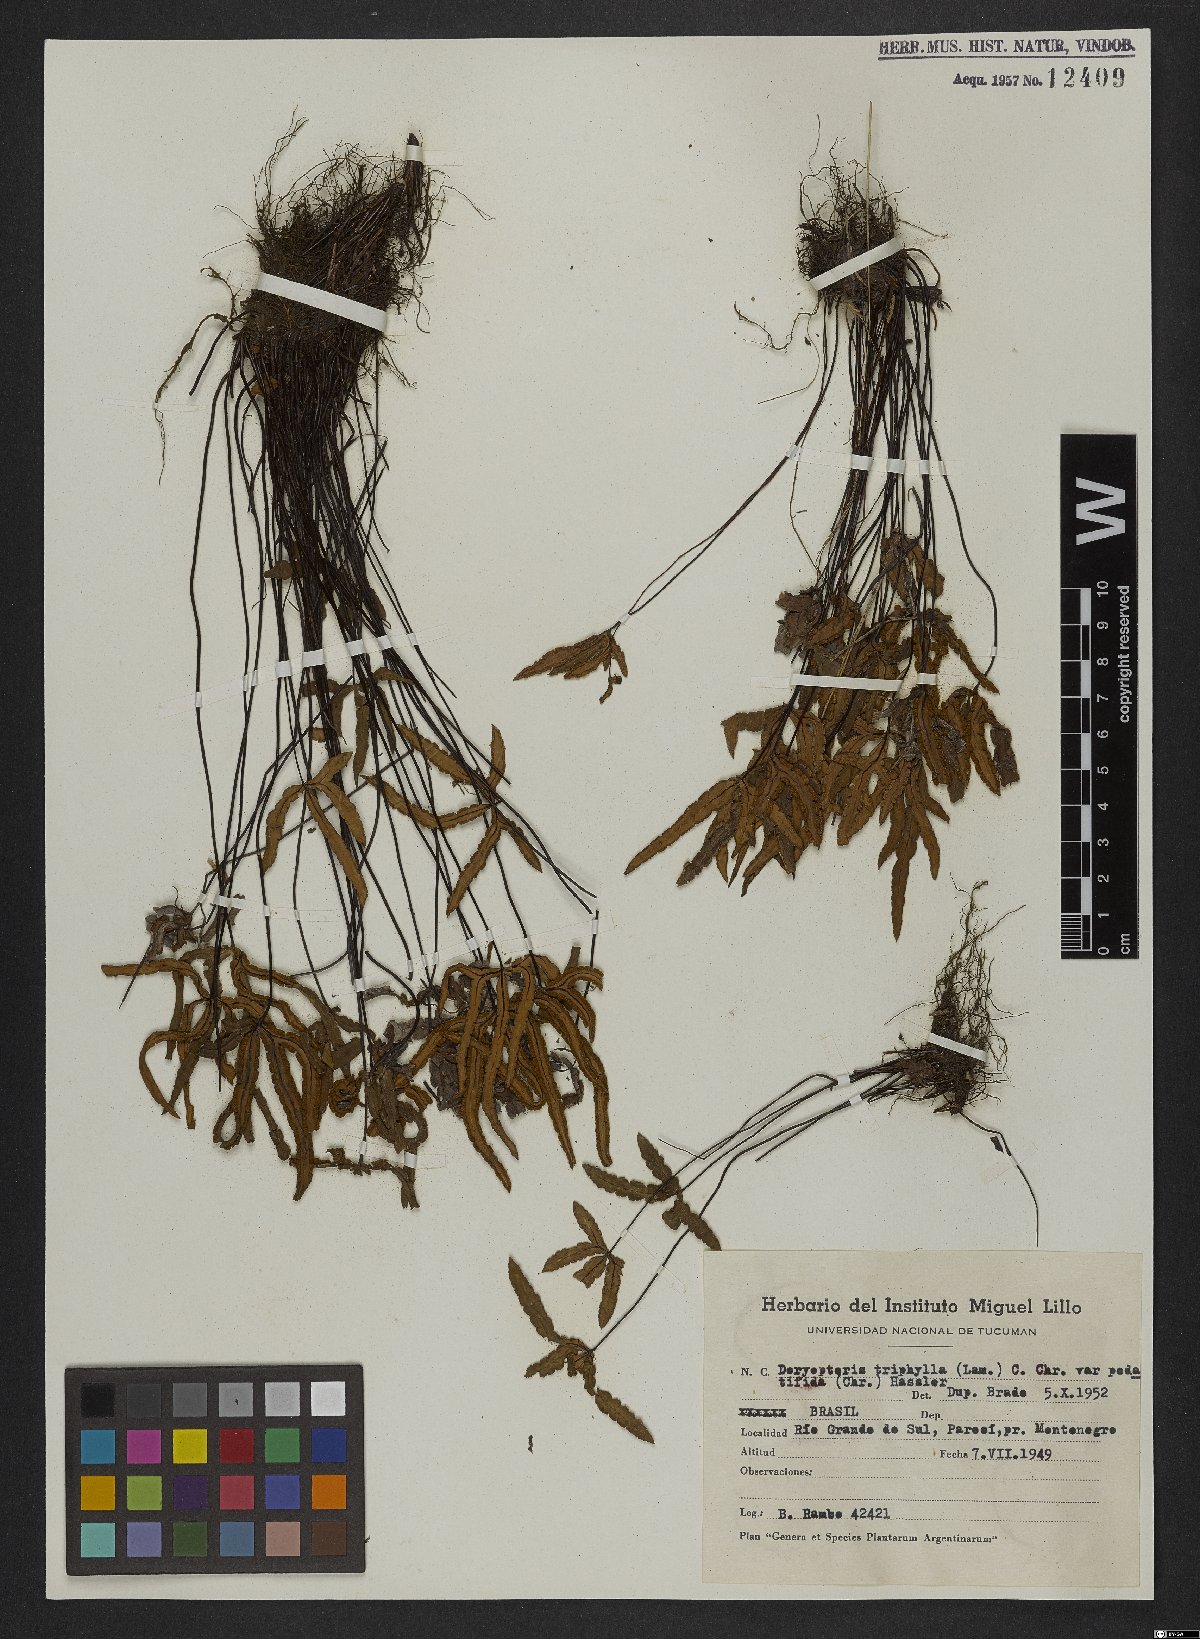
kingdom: Plantae
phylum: Tracheophyta
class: Polypodiopsida
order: Polypodiales
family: Pteridaceae
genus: Doryopteris
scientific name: Doryopteris triphylla
